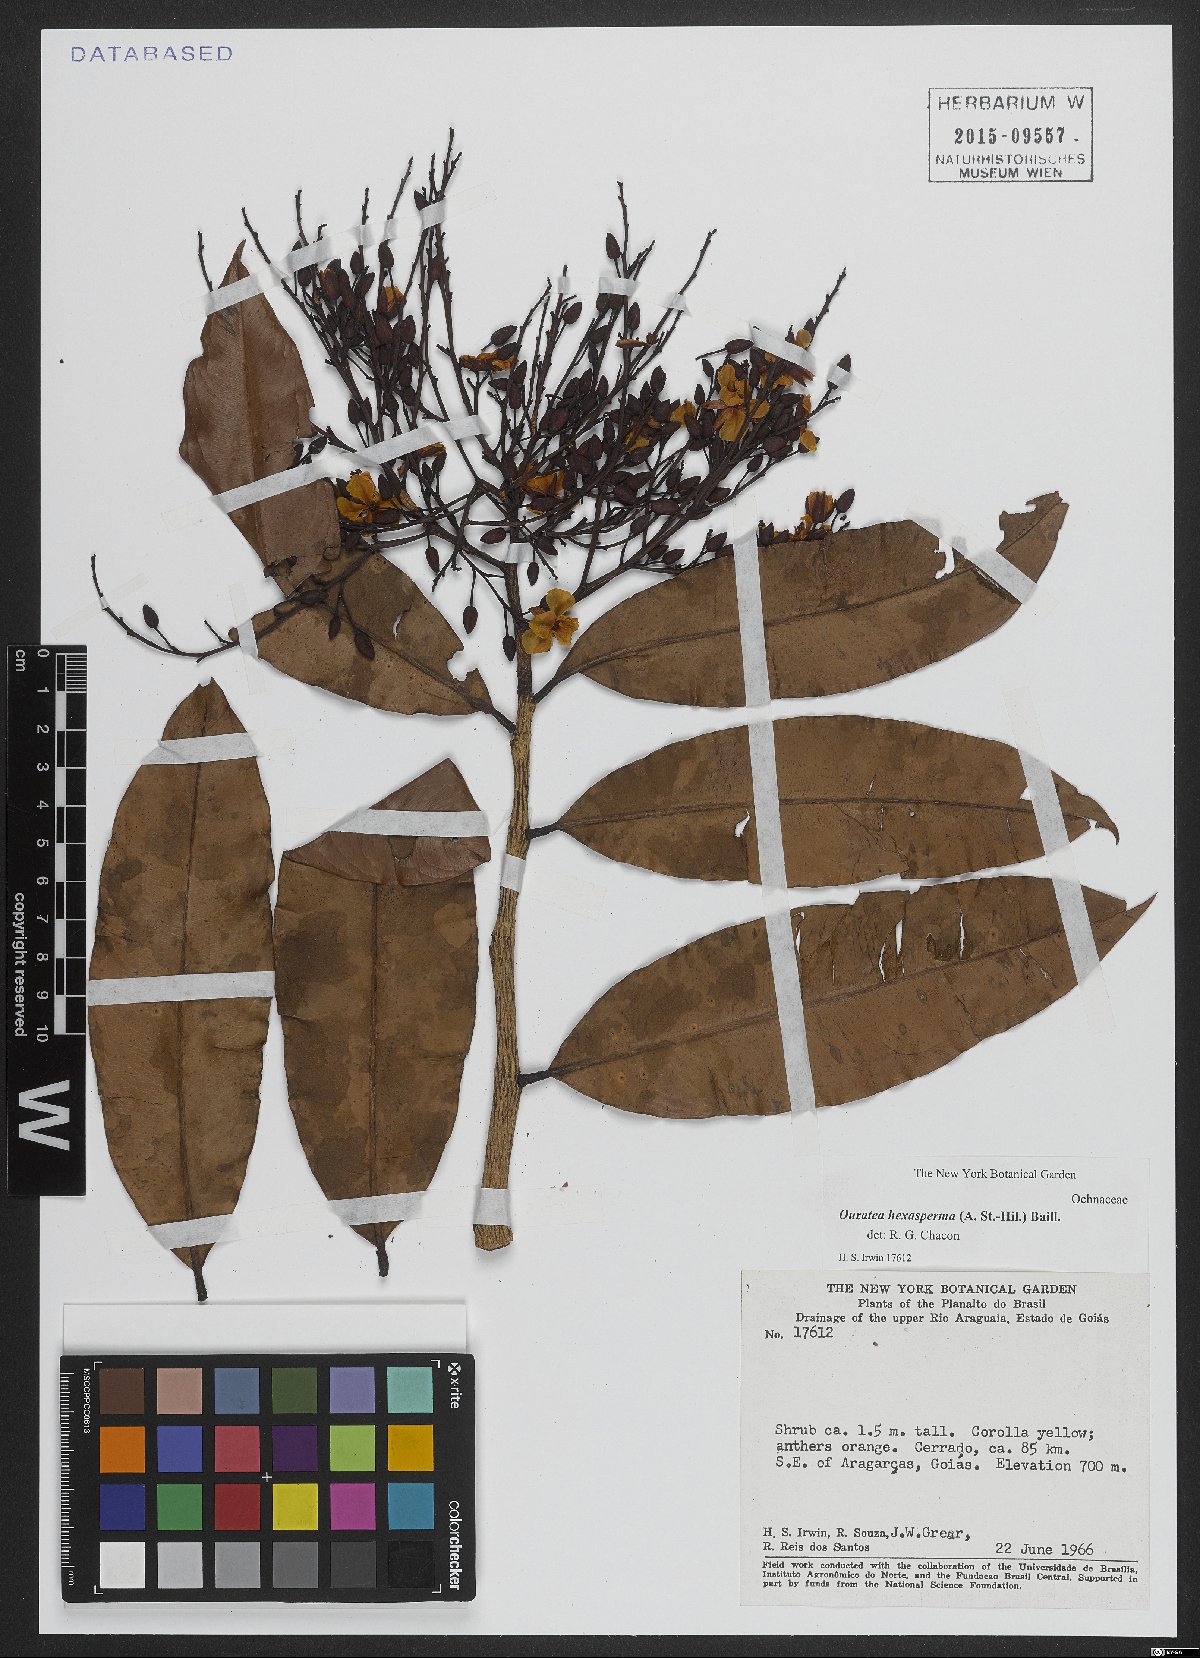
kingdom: Plantae
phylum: Tracheophyta
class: Magnoliopsida
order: Malpighiales
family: Ochnaceae
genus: Ouratea
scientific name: Ouratea hexasperma
